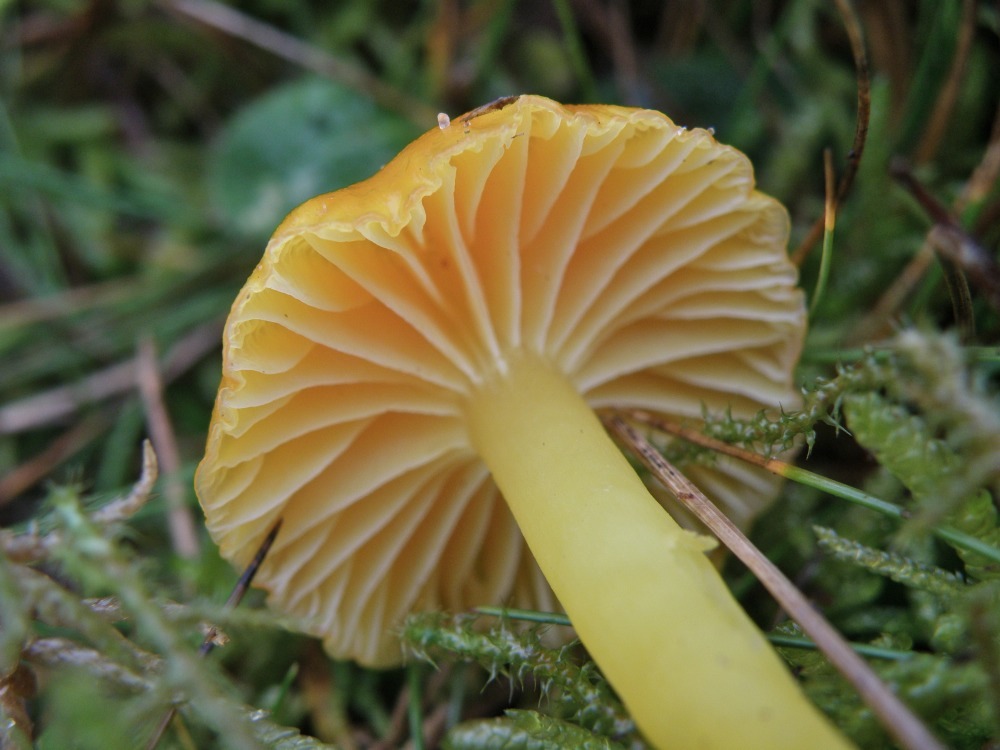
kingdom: Fungi
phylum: Basidiomycota
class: Agaricomycetes
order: Agaricales
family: Hygrophoraceae
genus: Hygrocybe
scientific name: Hygrocybe ceracea
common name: voksgul vokshat
